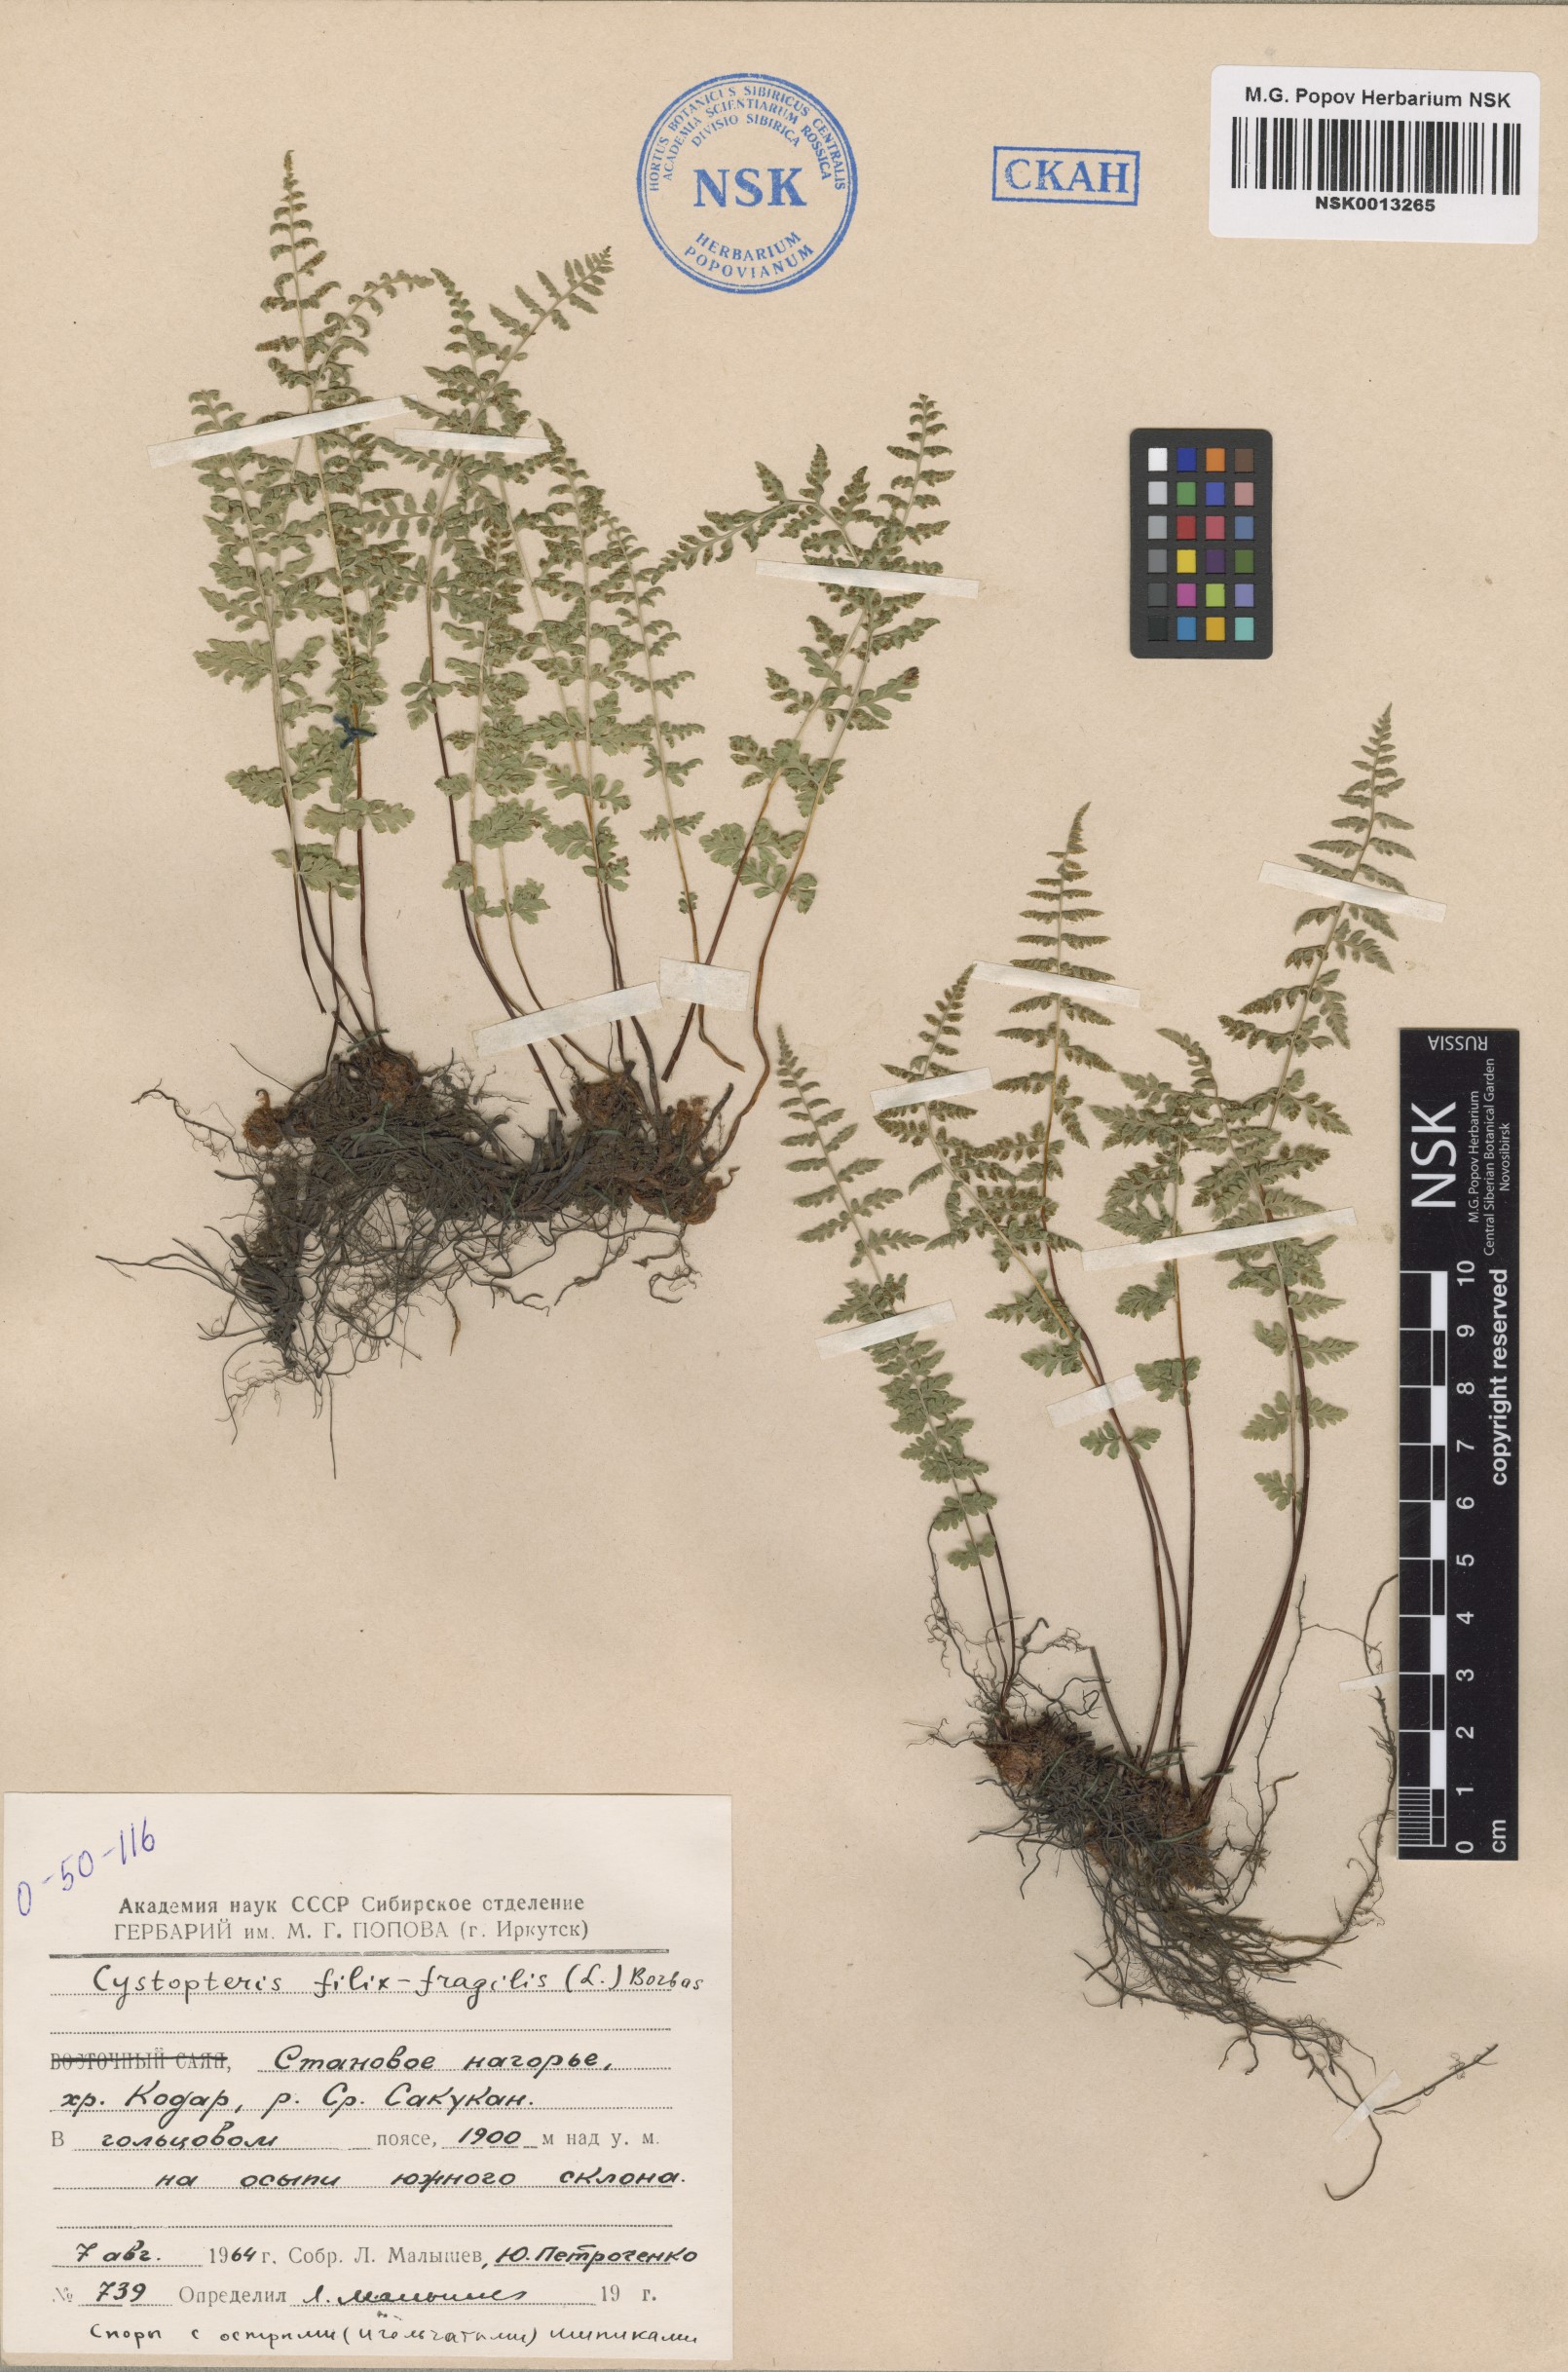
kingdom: Plantae
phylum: Tracheophyta
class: Polypodiopsida
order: Polypodiales
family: Cystopteridaceae
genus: Cystopteris
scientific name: Cystopteris fragilis
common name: Brittle bladder fern
